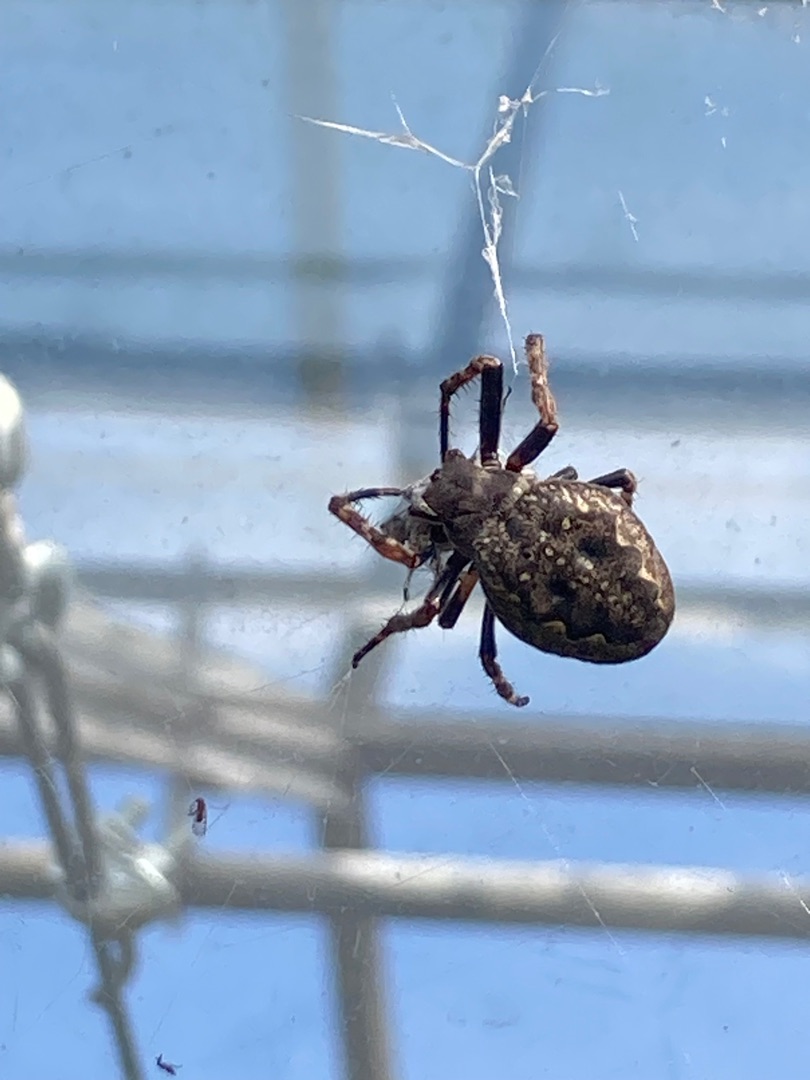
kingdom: Animalia
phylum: Arthropoda
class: Arachnida
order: Araneae
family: Araneidae
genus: Nuctenea
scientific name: Nuctenea umbratica
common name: Flad hjulspinder
